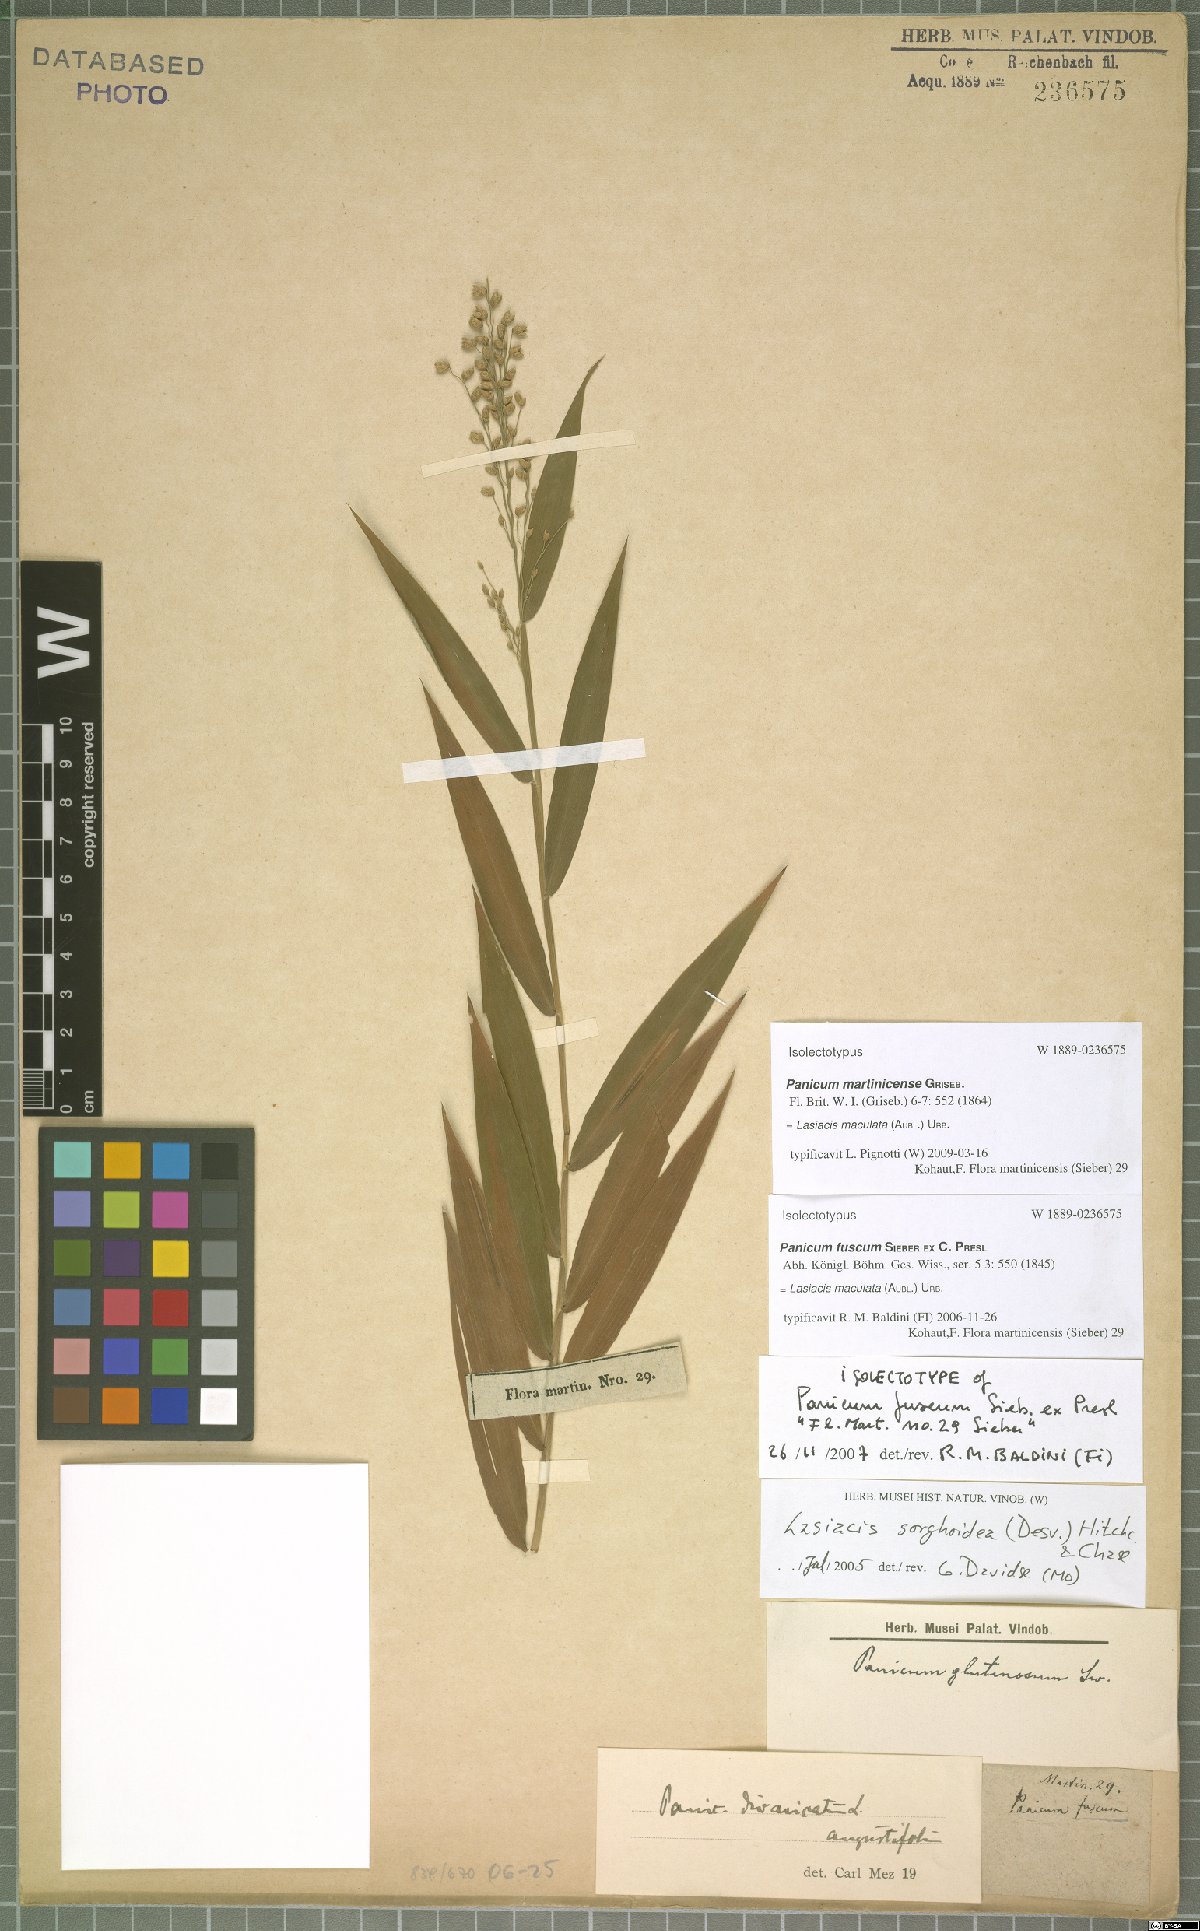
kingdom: Plantae
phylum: Tracheophyta
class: Liliopsida
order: Poales
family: Poaceae
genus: Lasiacis
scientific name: Lasiacis maculata
